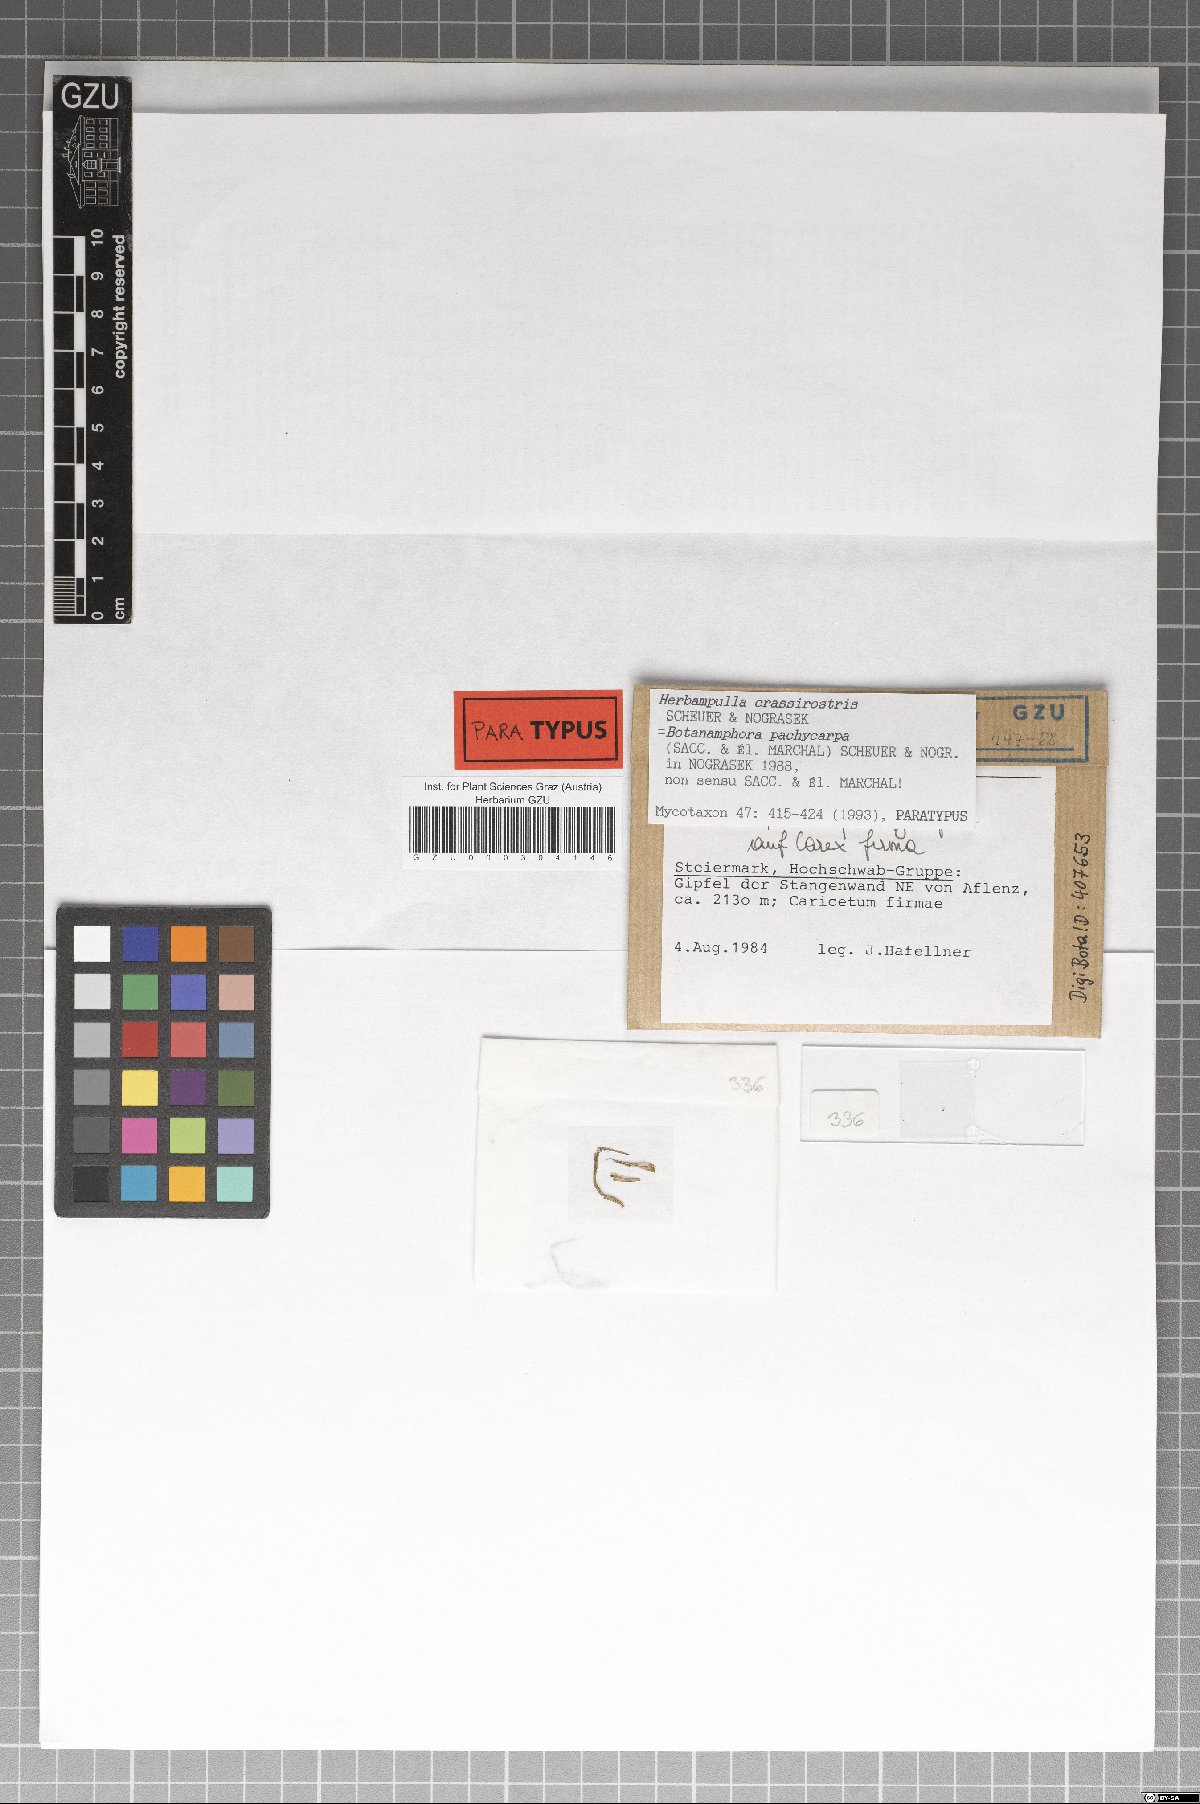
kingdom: Fungi
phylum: Ascomycota
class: Sordariomycetes
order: Magnaporthales
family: Magnaporthaceae
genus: Herbampulla
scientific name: Herbampulla crassirostris
